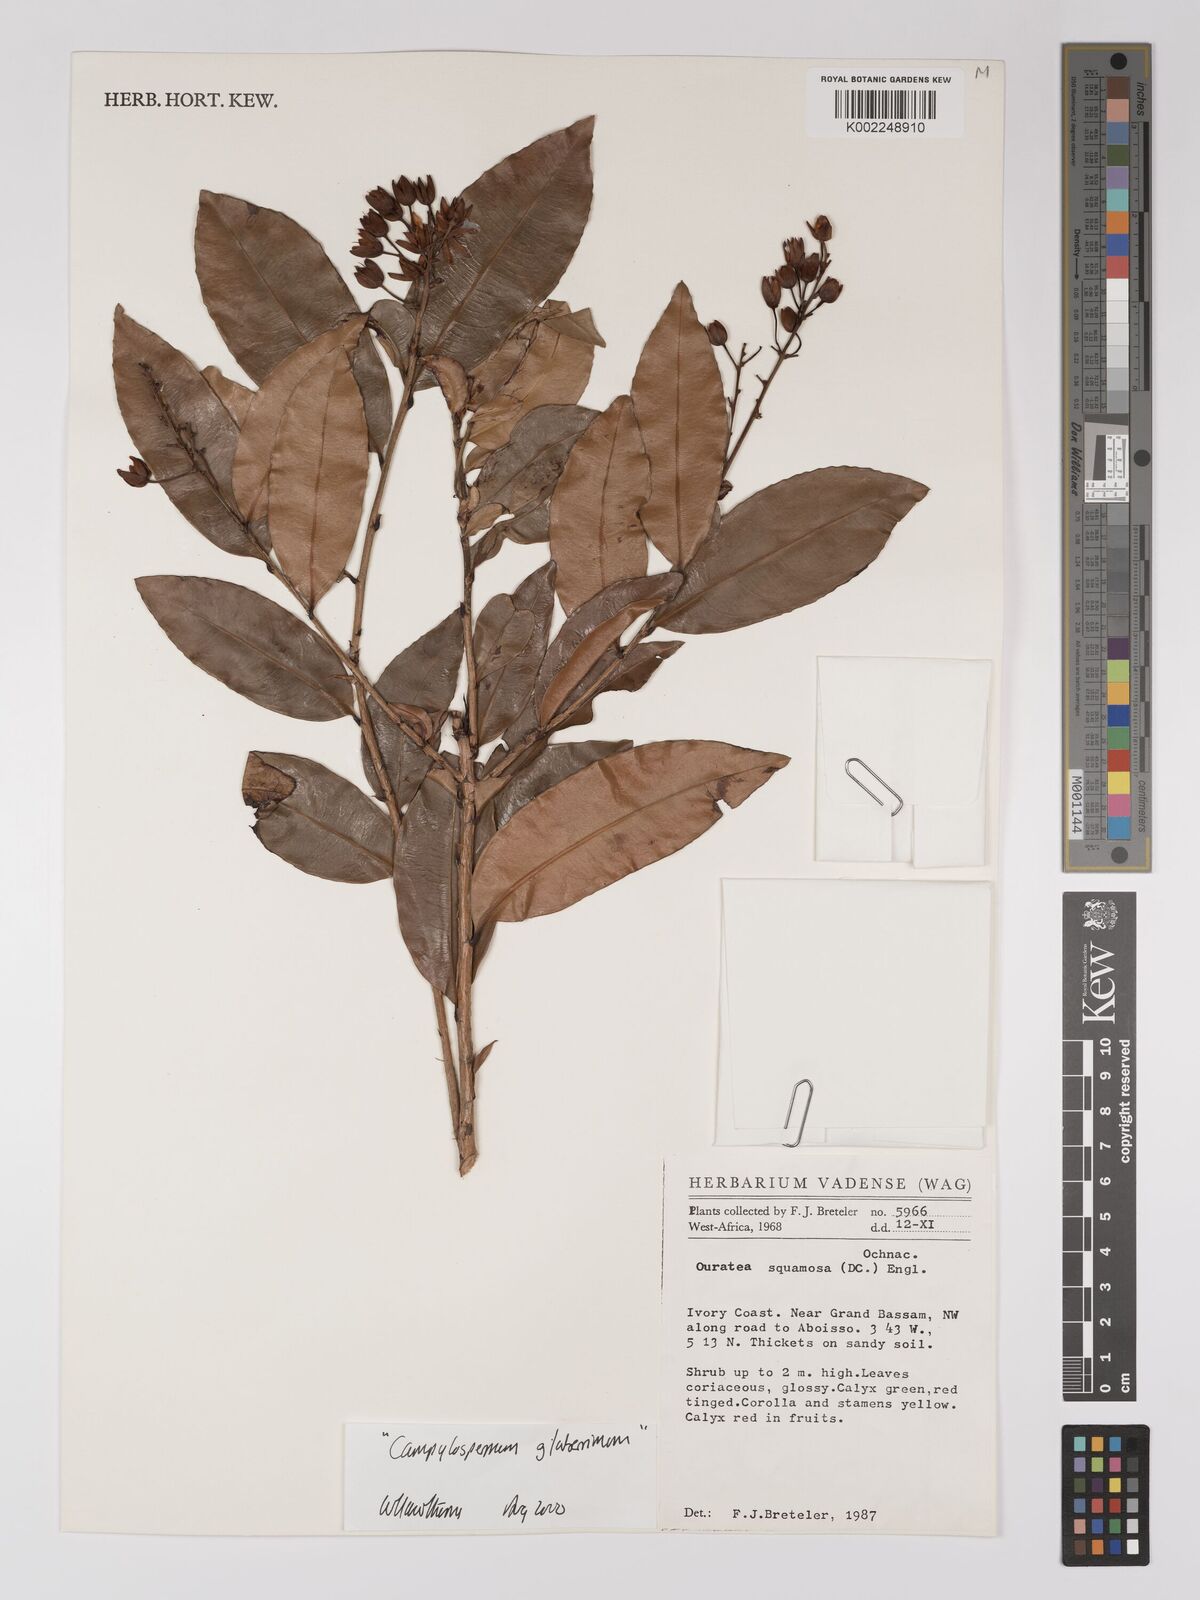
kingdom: Plantae
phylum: Tracheophyta
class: Magnoliopsida
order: Malpighiales
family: Ochnaceae
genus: Campylospermum
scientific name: Campylospermum glaberrimum
